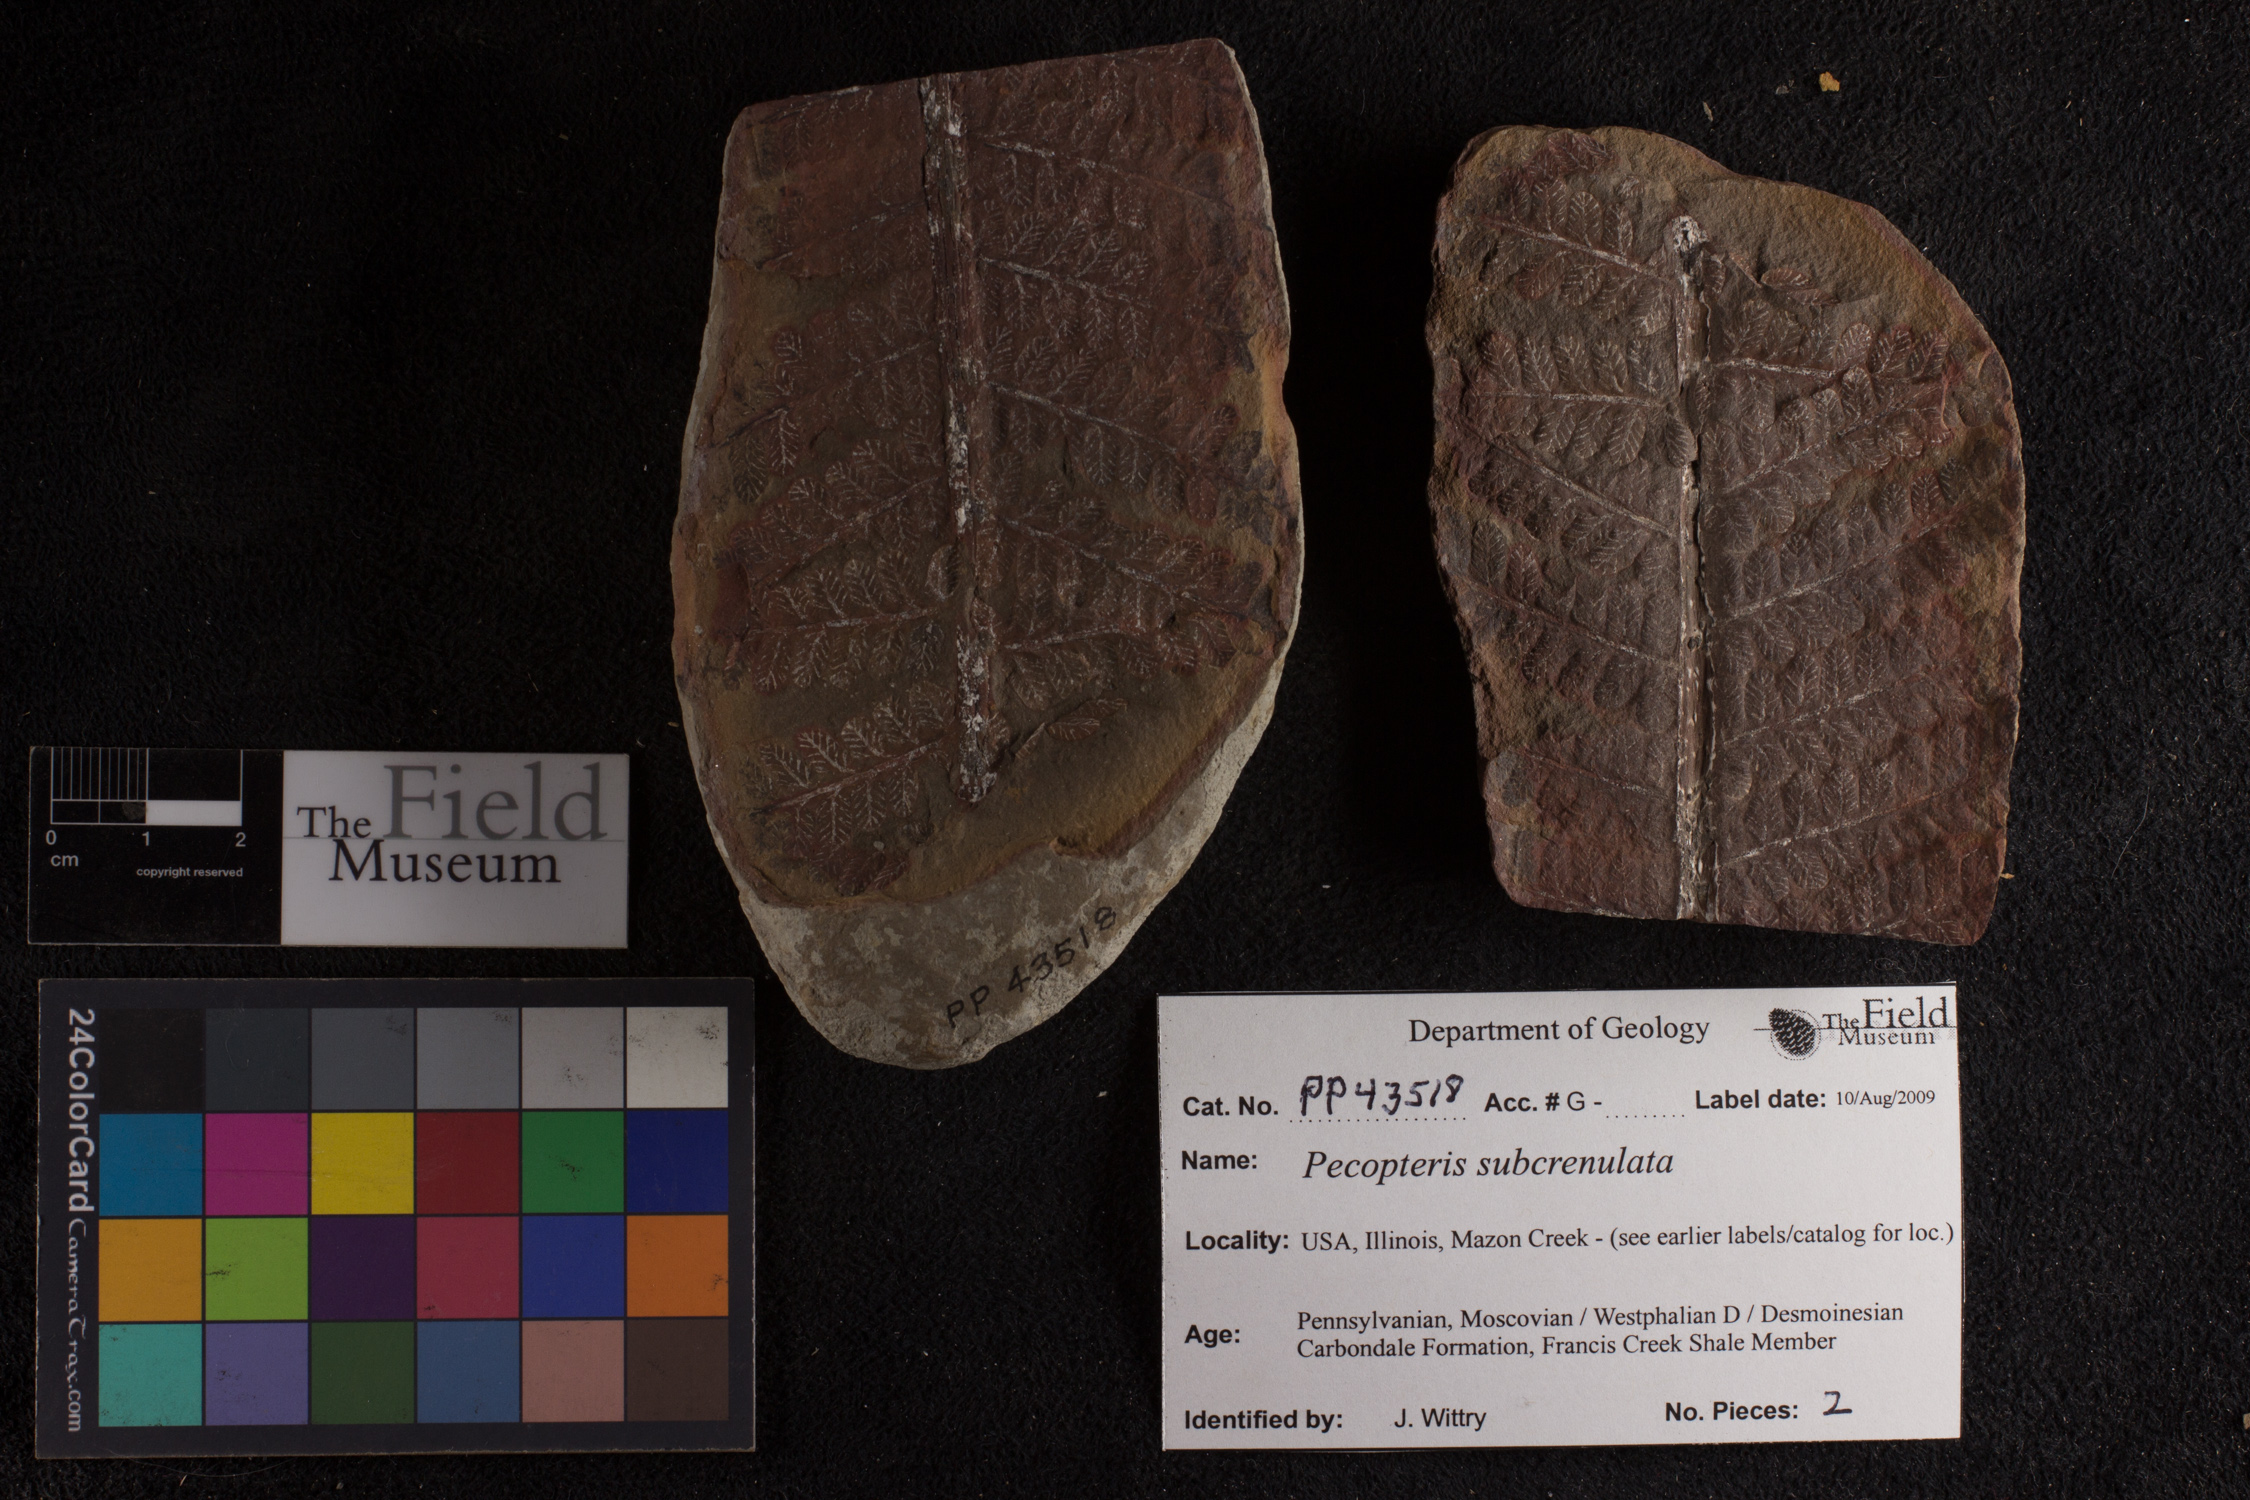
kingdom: Plantae
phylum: Tracheophyta
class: Polypodiopsida
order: Marattiales
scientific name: Marattiales
